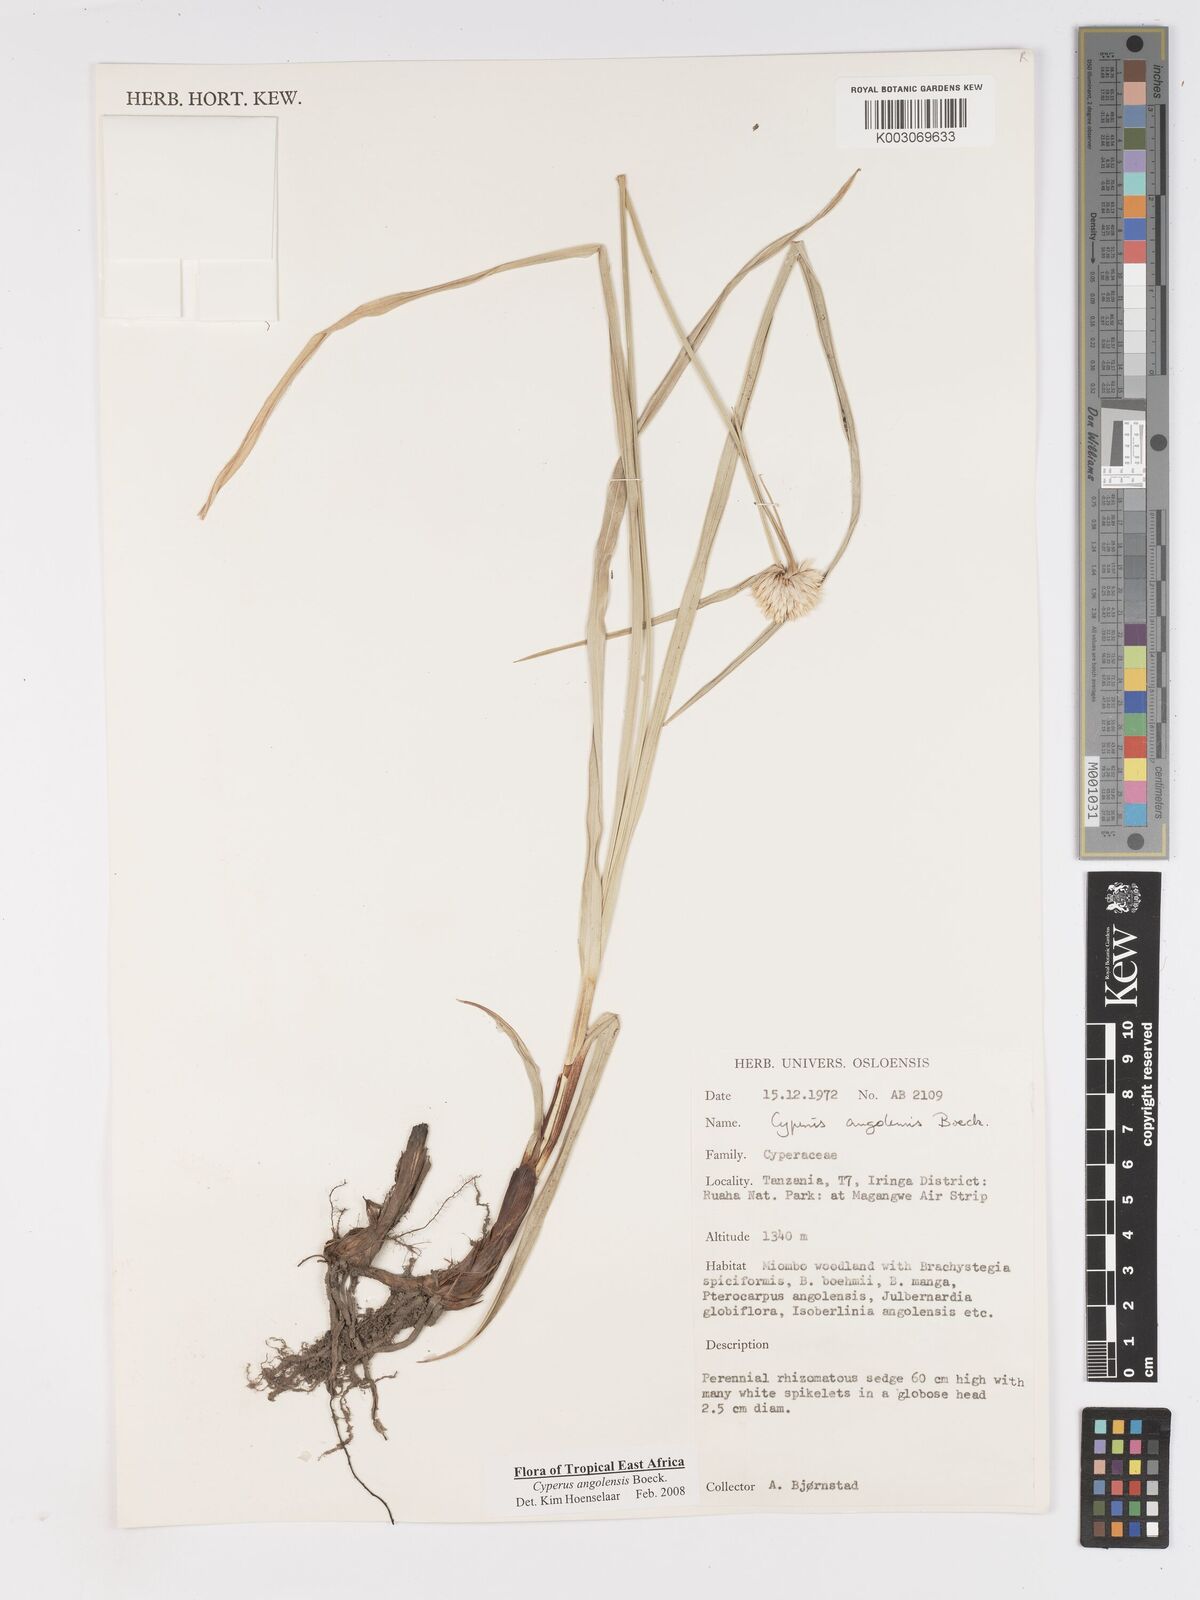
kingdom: Plantae
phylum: Tracheophyta
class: Liliopsida
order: Poales
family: Cyperaceae
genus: Cyperus
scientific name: Cyperus angolensis
